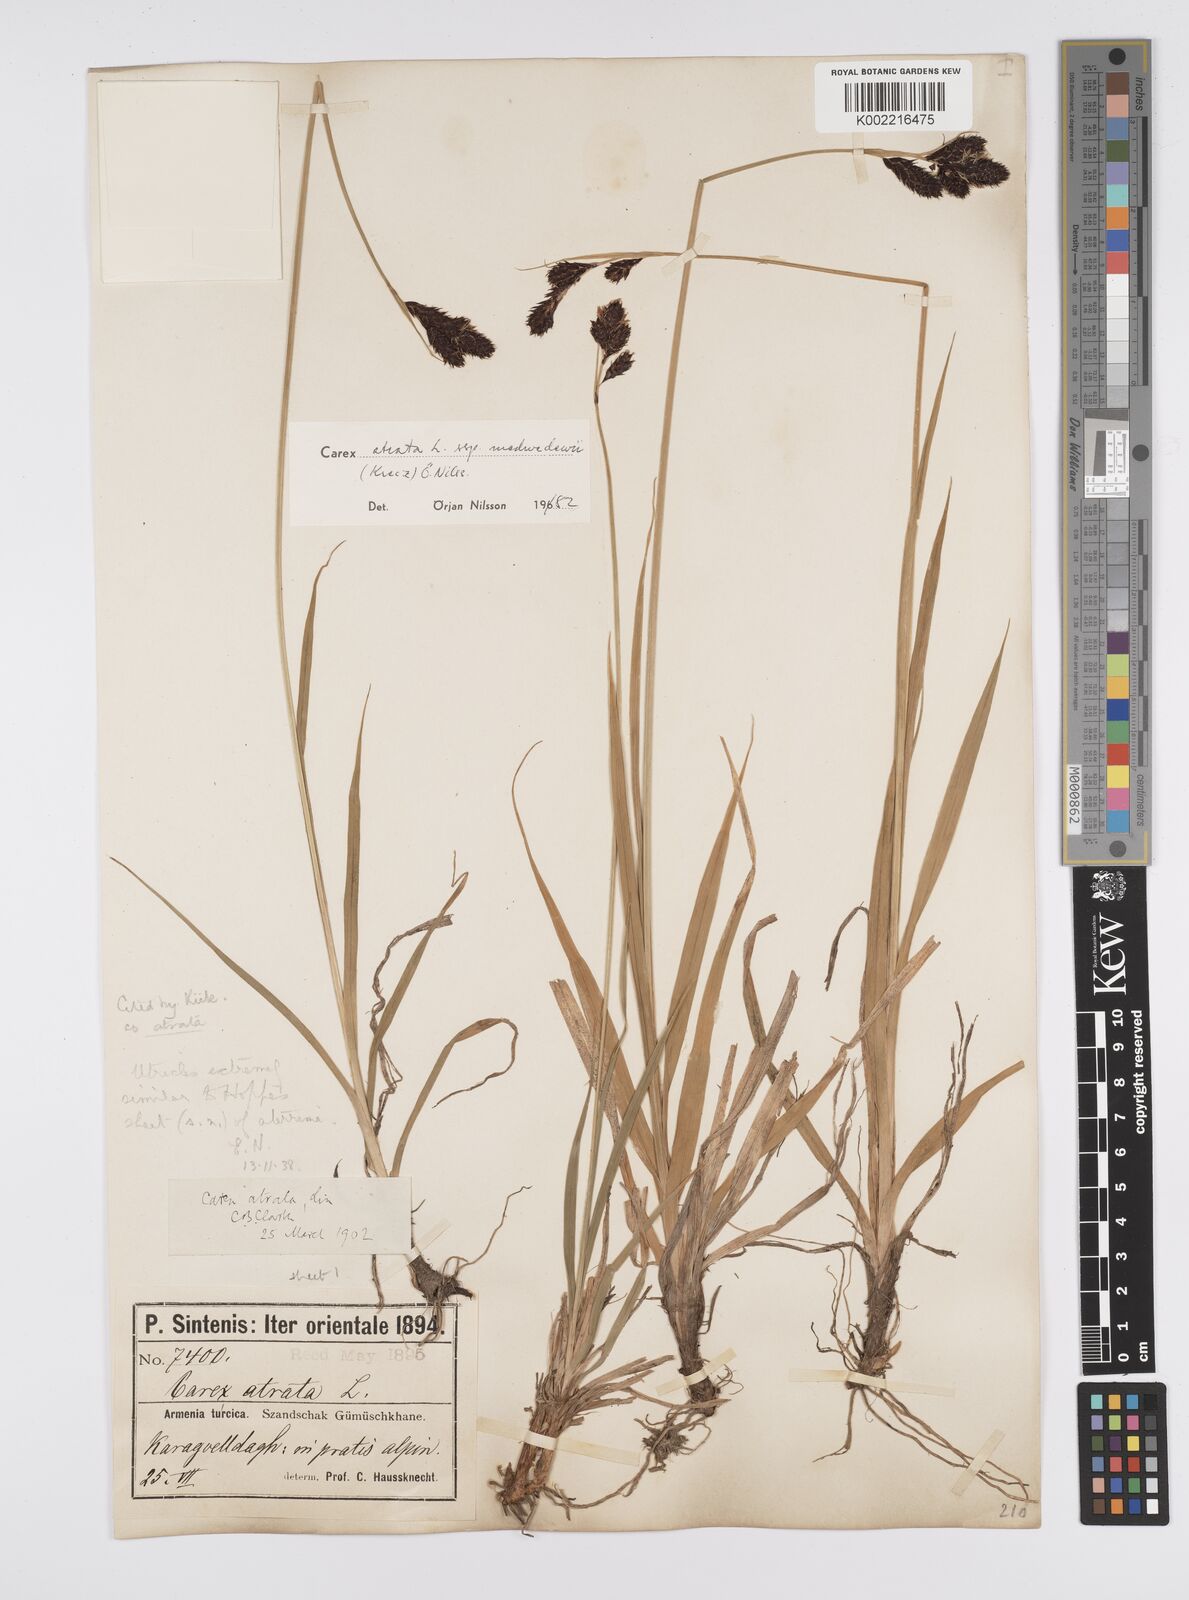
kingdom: Plantae
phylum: Tracheophyta
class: Liliopsida
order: Poales
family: Cyperaceae
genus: Carex
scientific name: Carex atrata
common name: Black alpine sedge
